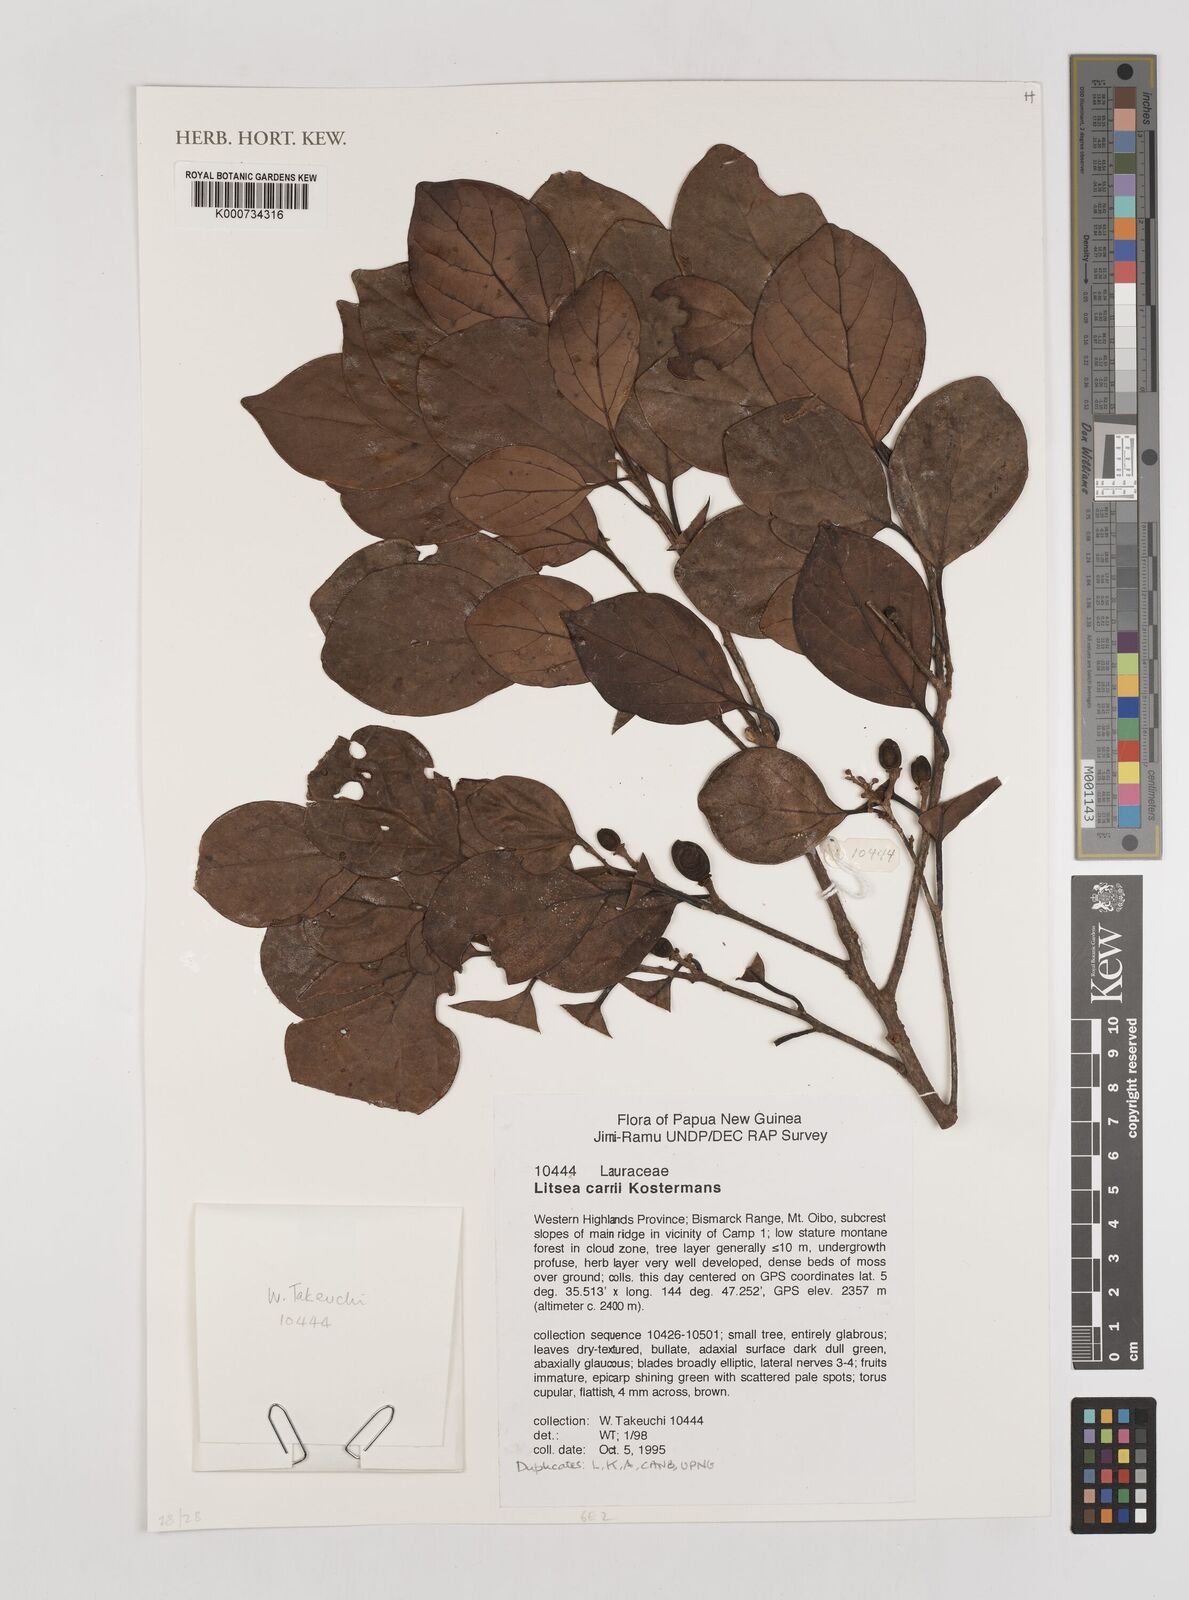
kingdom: Plantae
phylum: Tracheophyta
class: Magnoliopsida
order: Laurales
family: Lauraceae
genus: Litsea
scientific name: Litsea carrii
